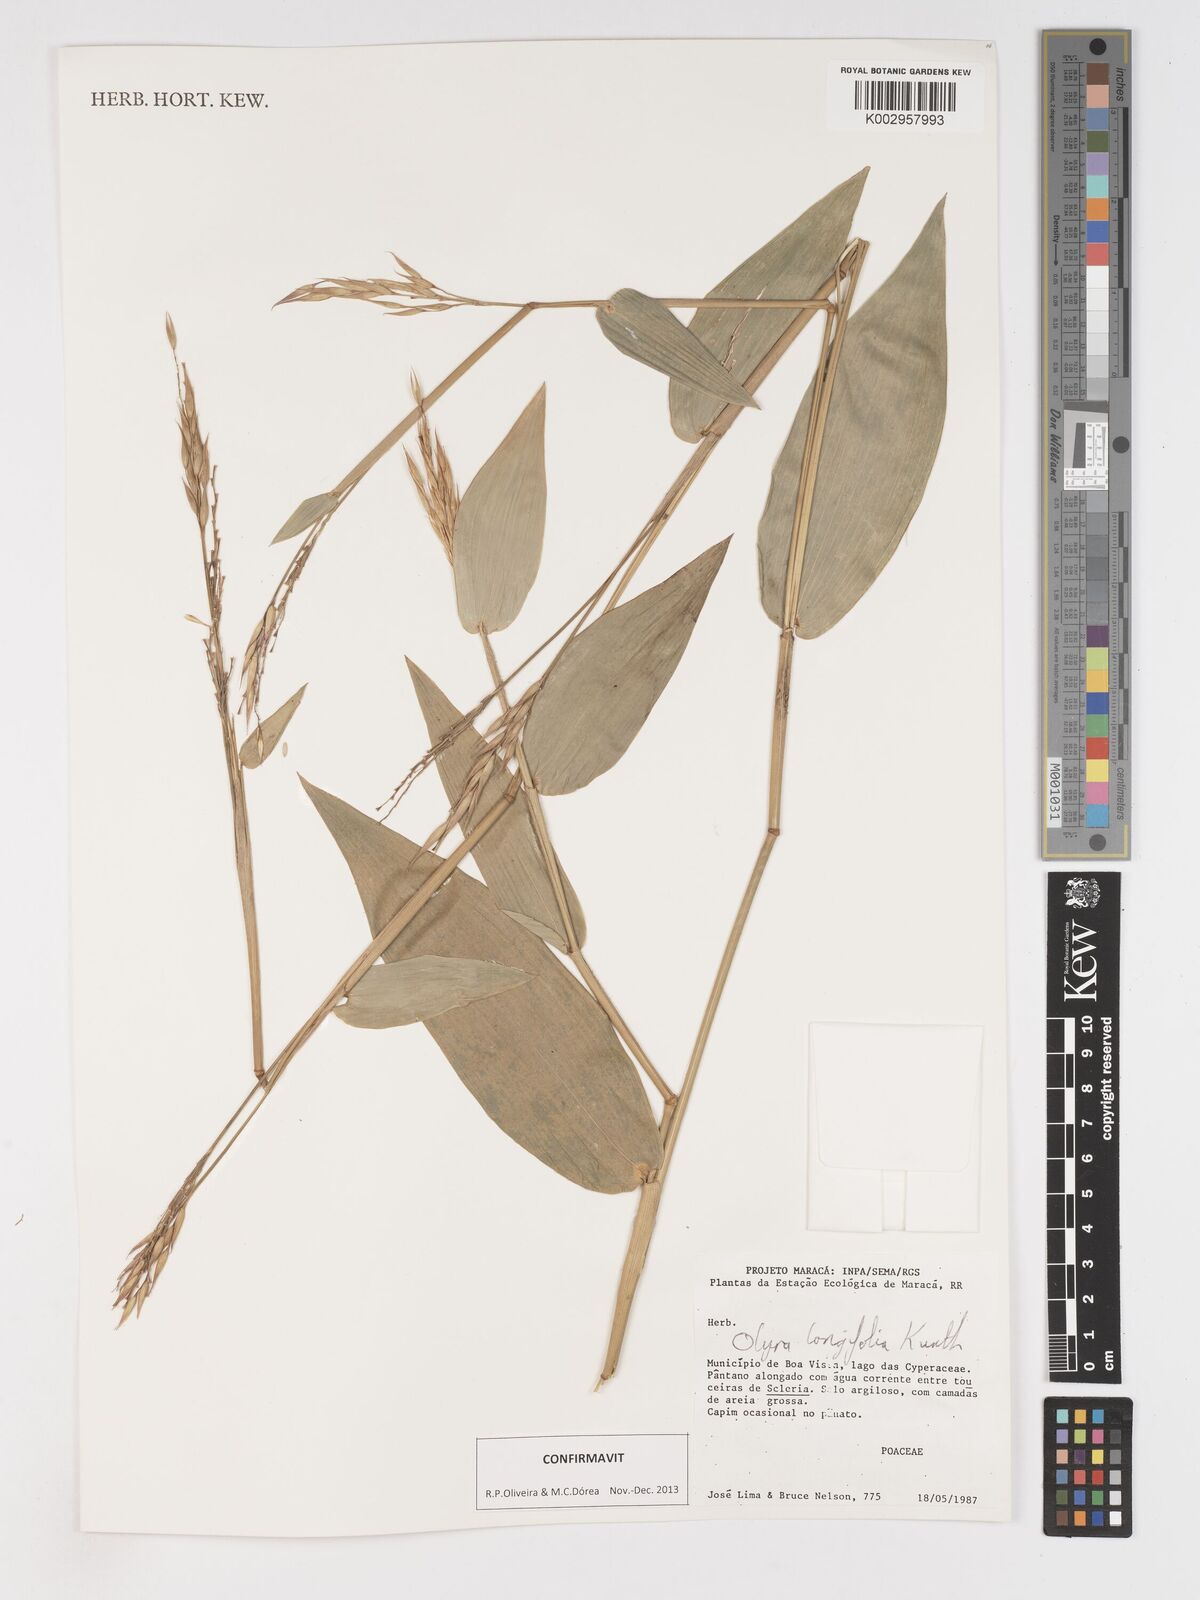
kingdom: Plantae
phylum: Tracheophyta
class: Liliopsida
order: Poales
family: Poaceae
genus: Olyra
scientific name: Olyra longifolia
